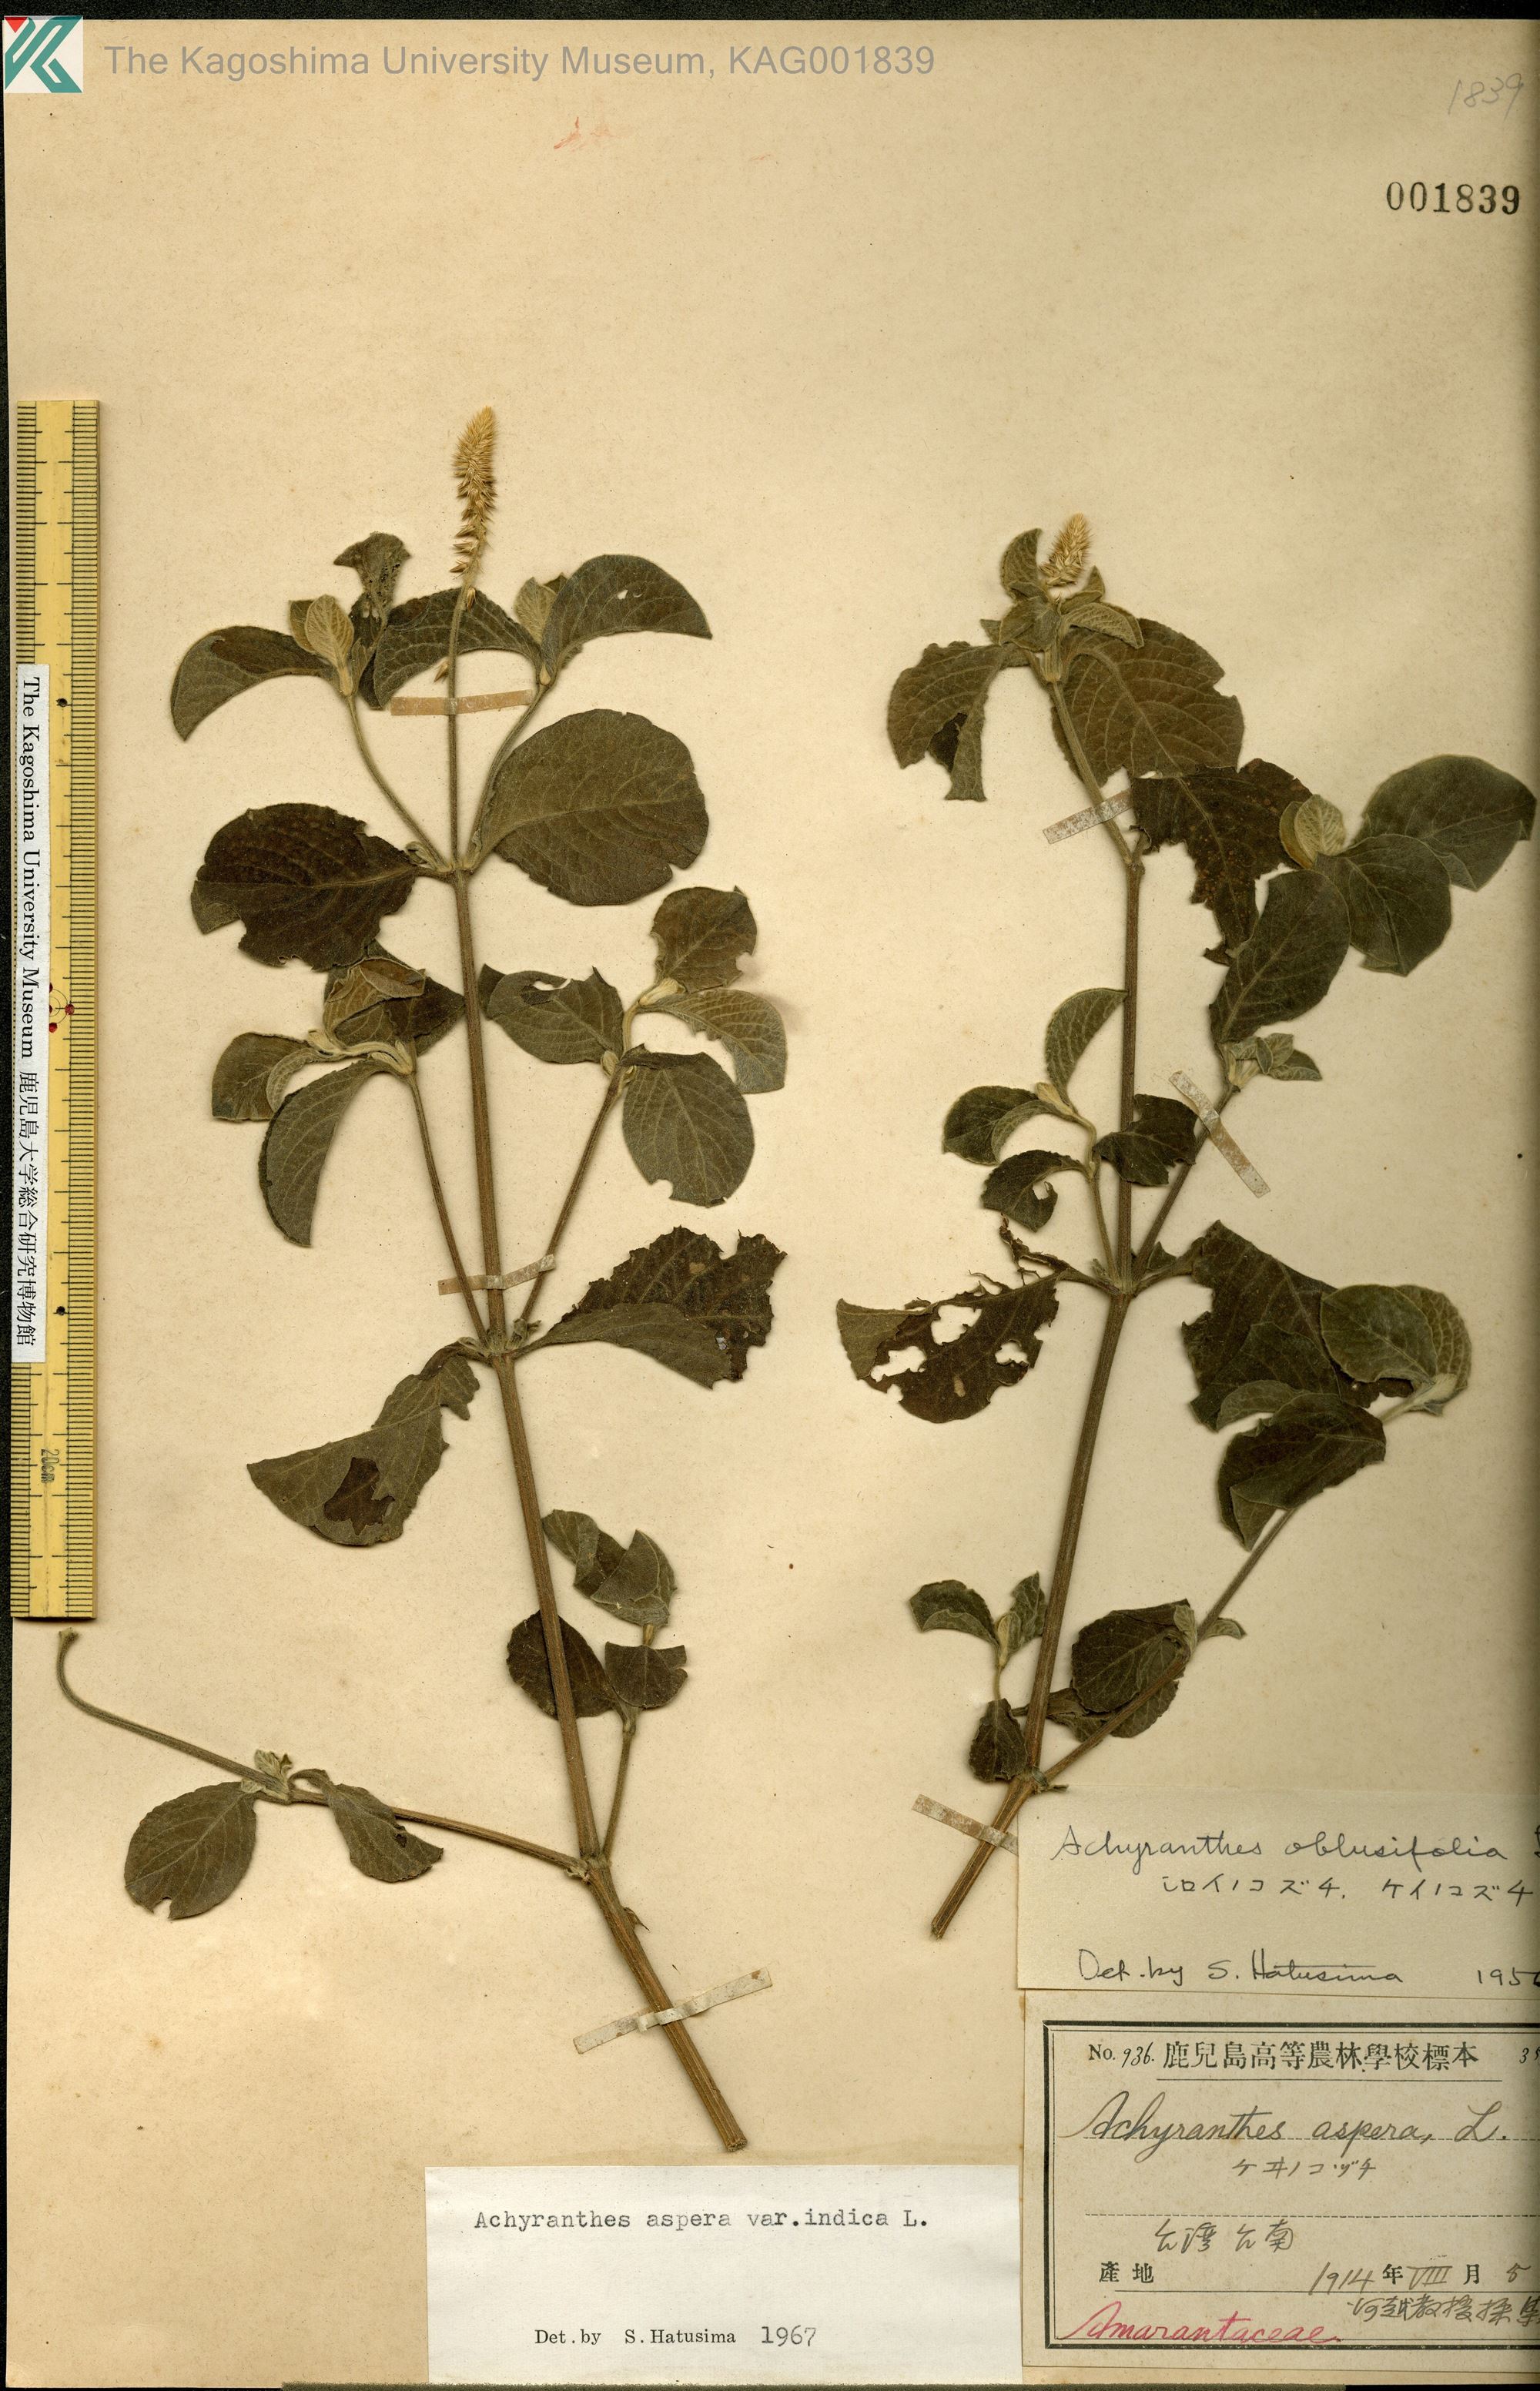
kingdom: Plantae
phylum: Tracheophyta
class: Magnoliopsida
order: Caryophyllales
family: Amaranthaceae
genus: Achyranthes
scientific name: Achyranthes aspera
